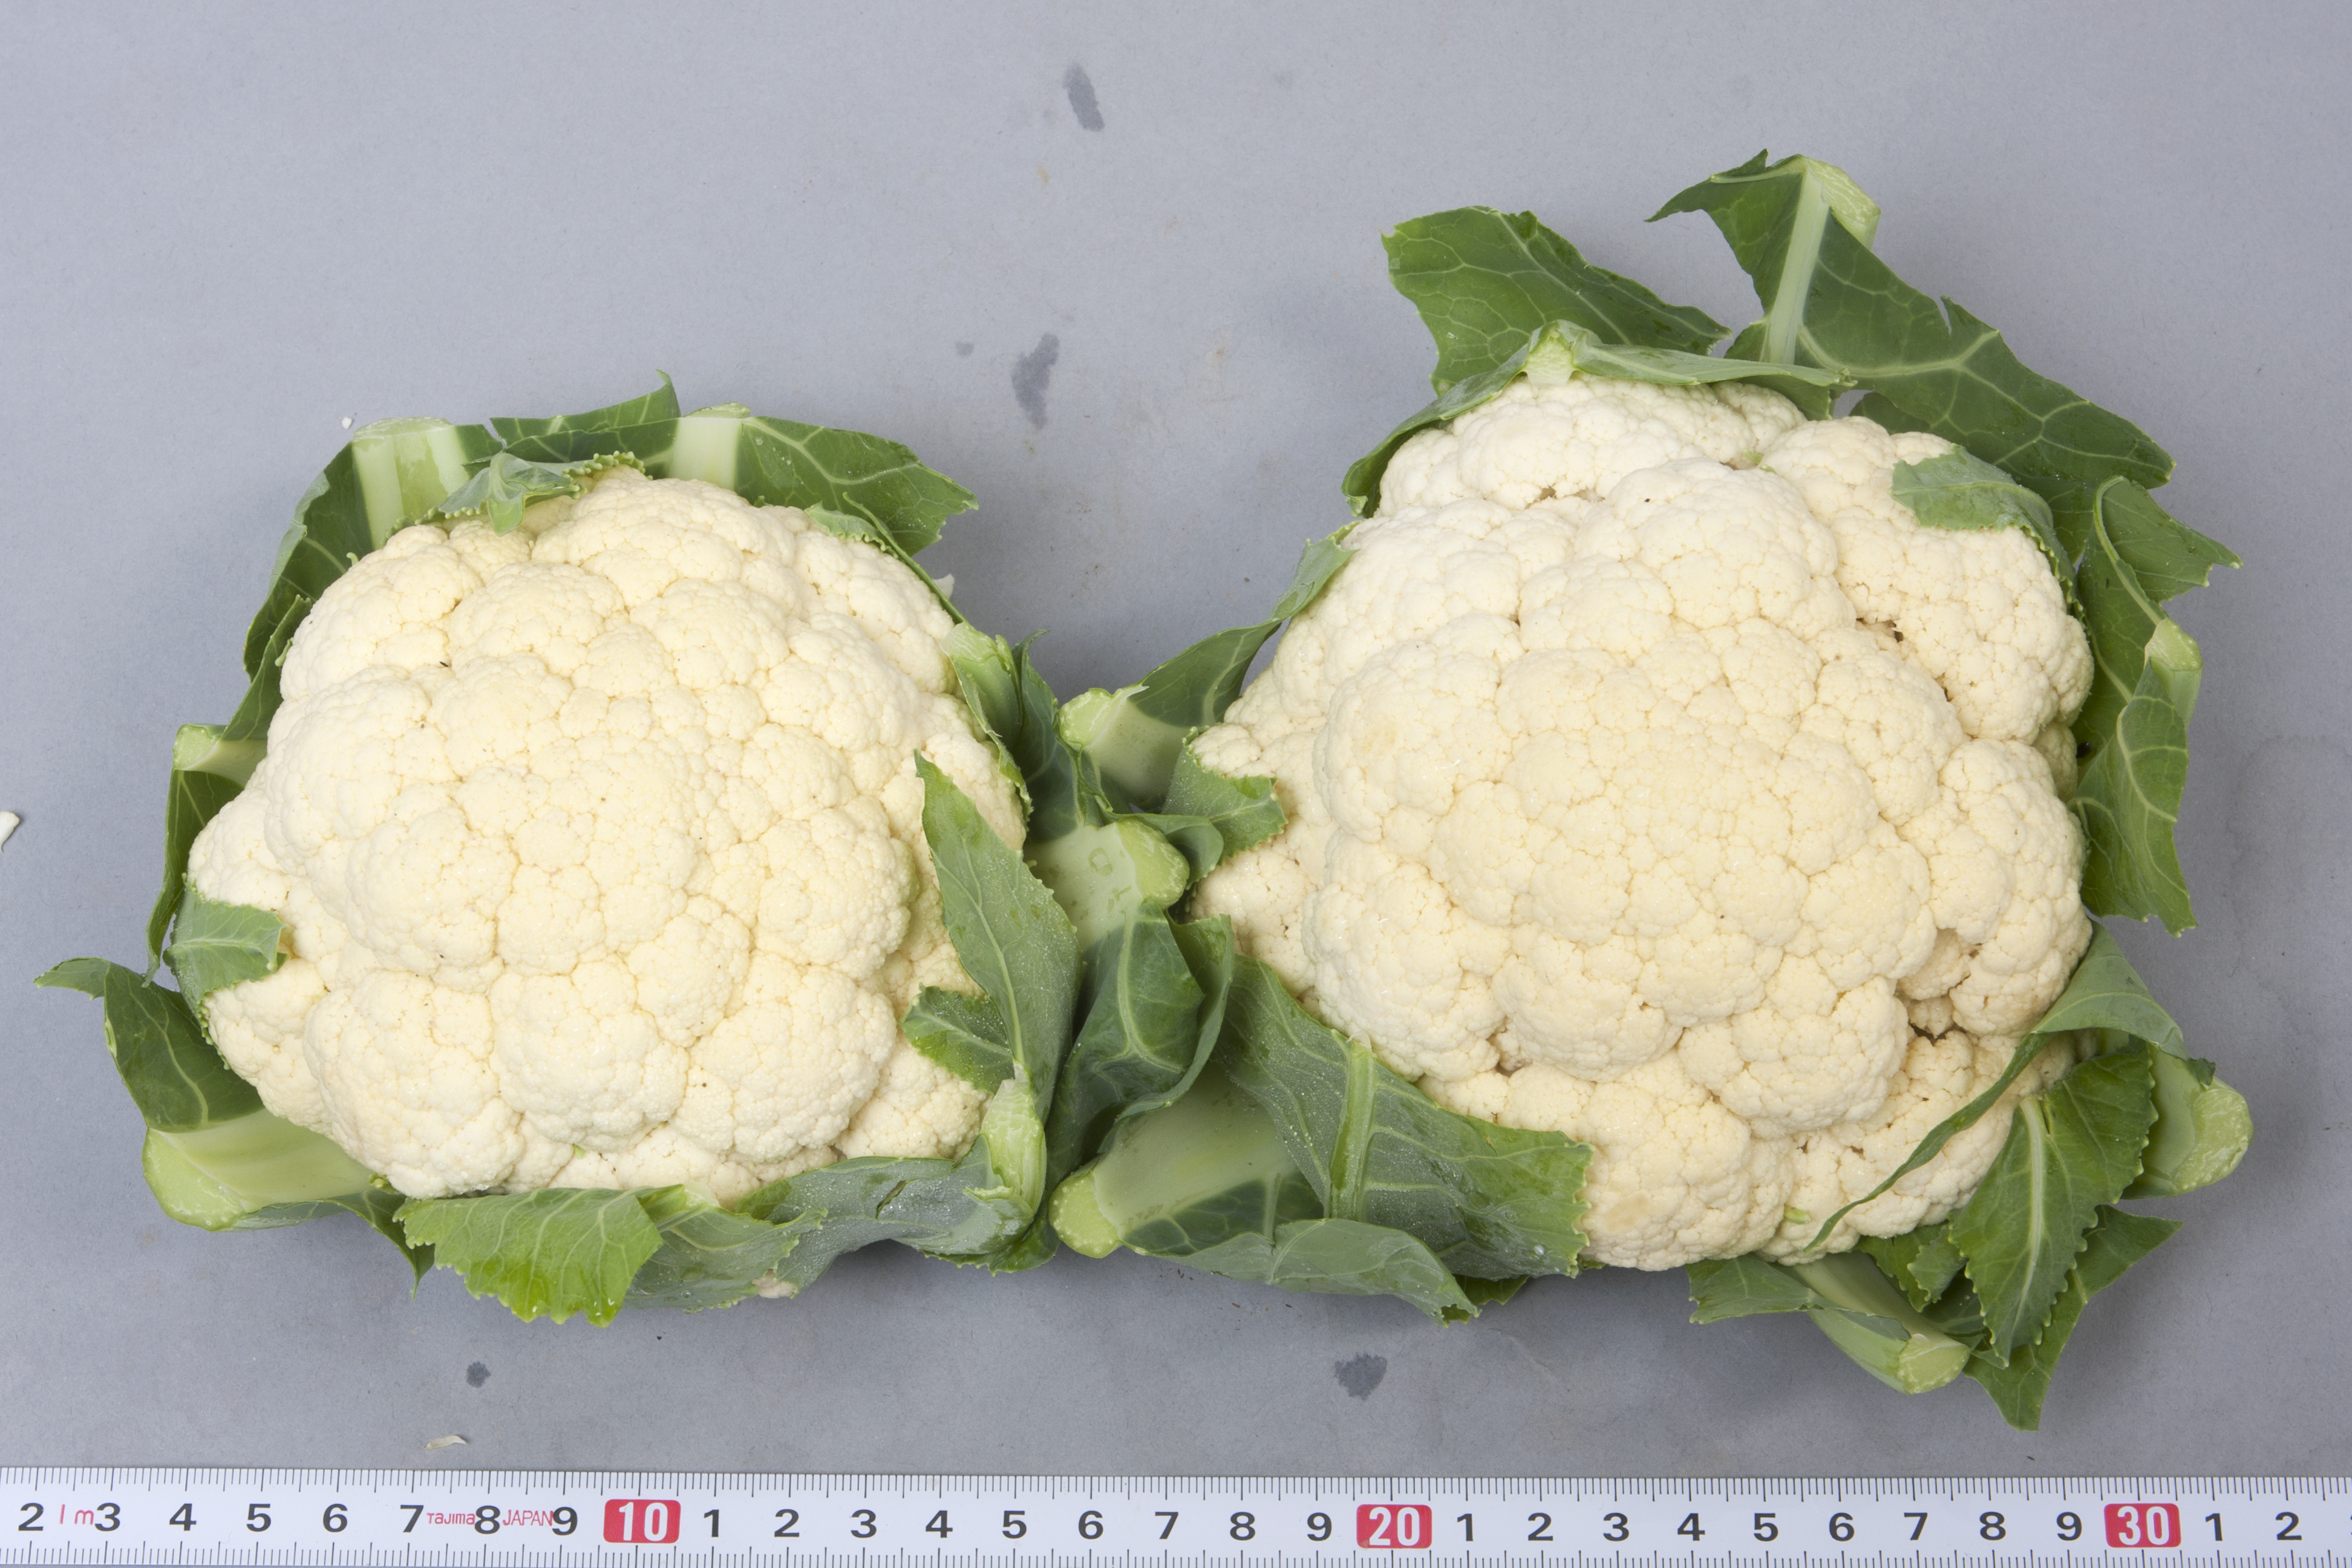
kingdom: Plantae
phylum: Tracheophyta
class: Magnoliopsida
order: Brassicales
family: Brassicaceae
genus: Brassica
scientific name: Brassica oleracea
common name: Cabbage
